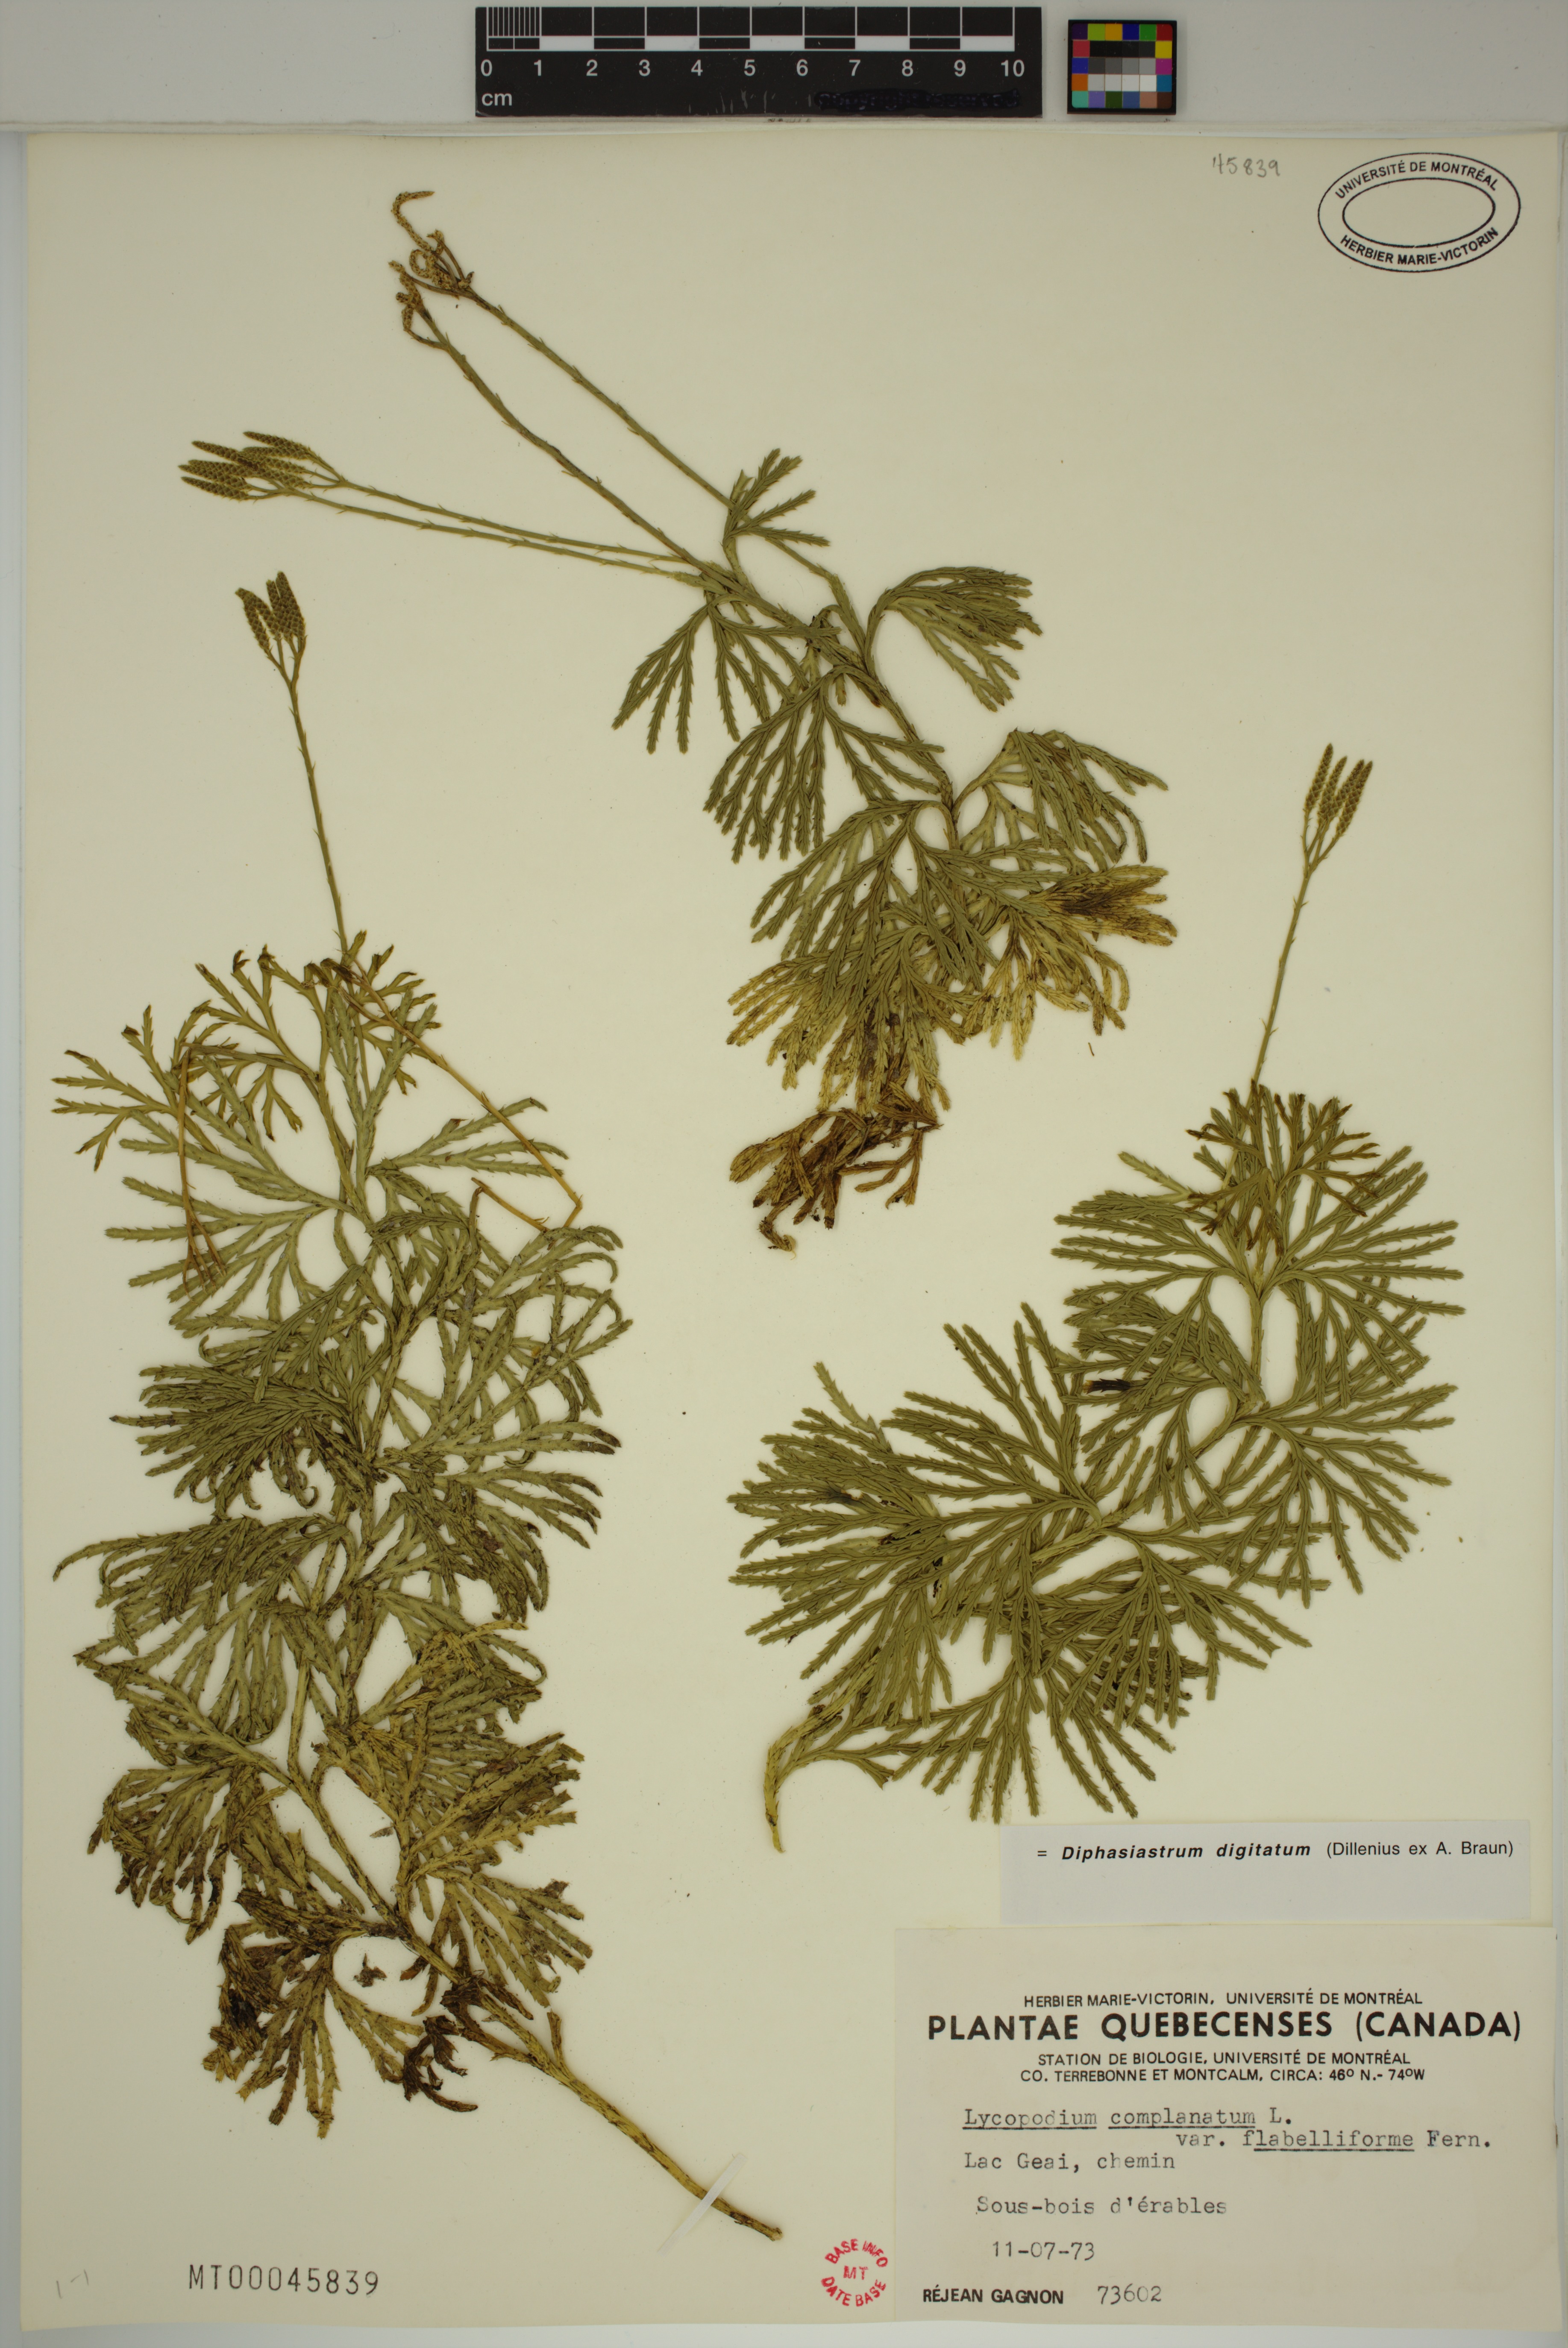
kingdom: Plantae
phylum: Tracheophyta
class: Lycopodiopsida
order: Lycopodiales
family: Lycopodiaceae
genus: Diphasiastrum
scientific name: Diphasiastrum digitatum
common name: Southern running-pine
